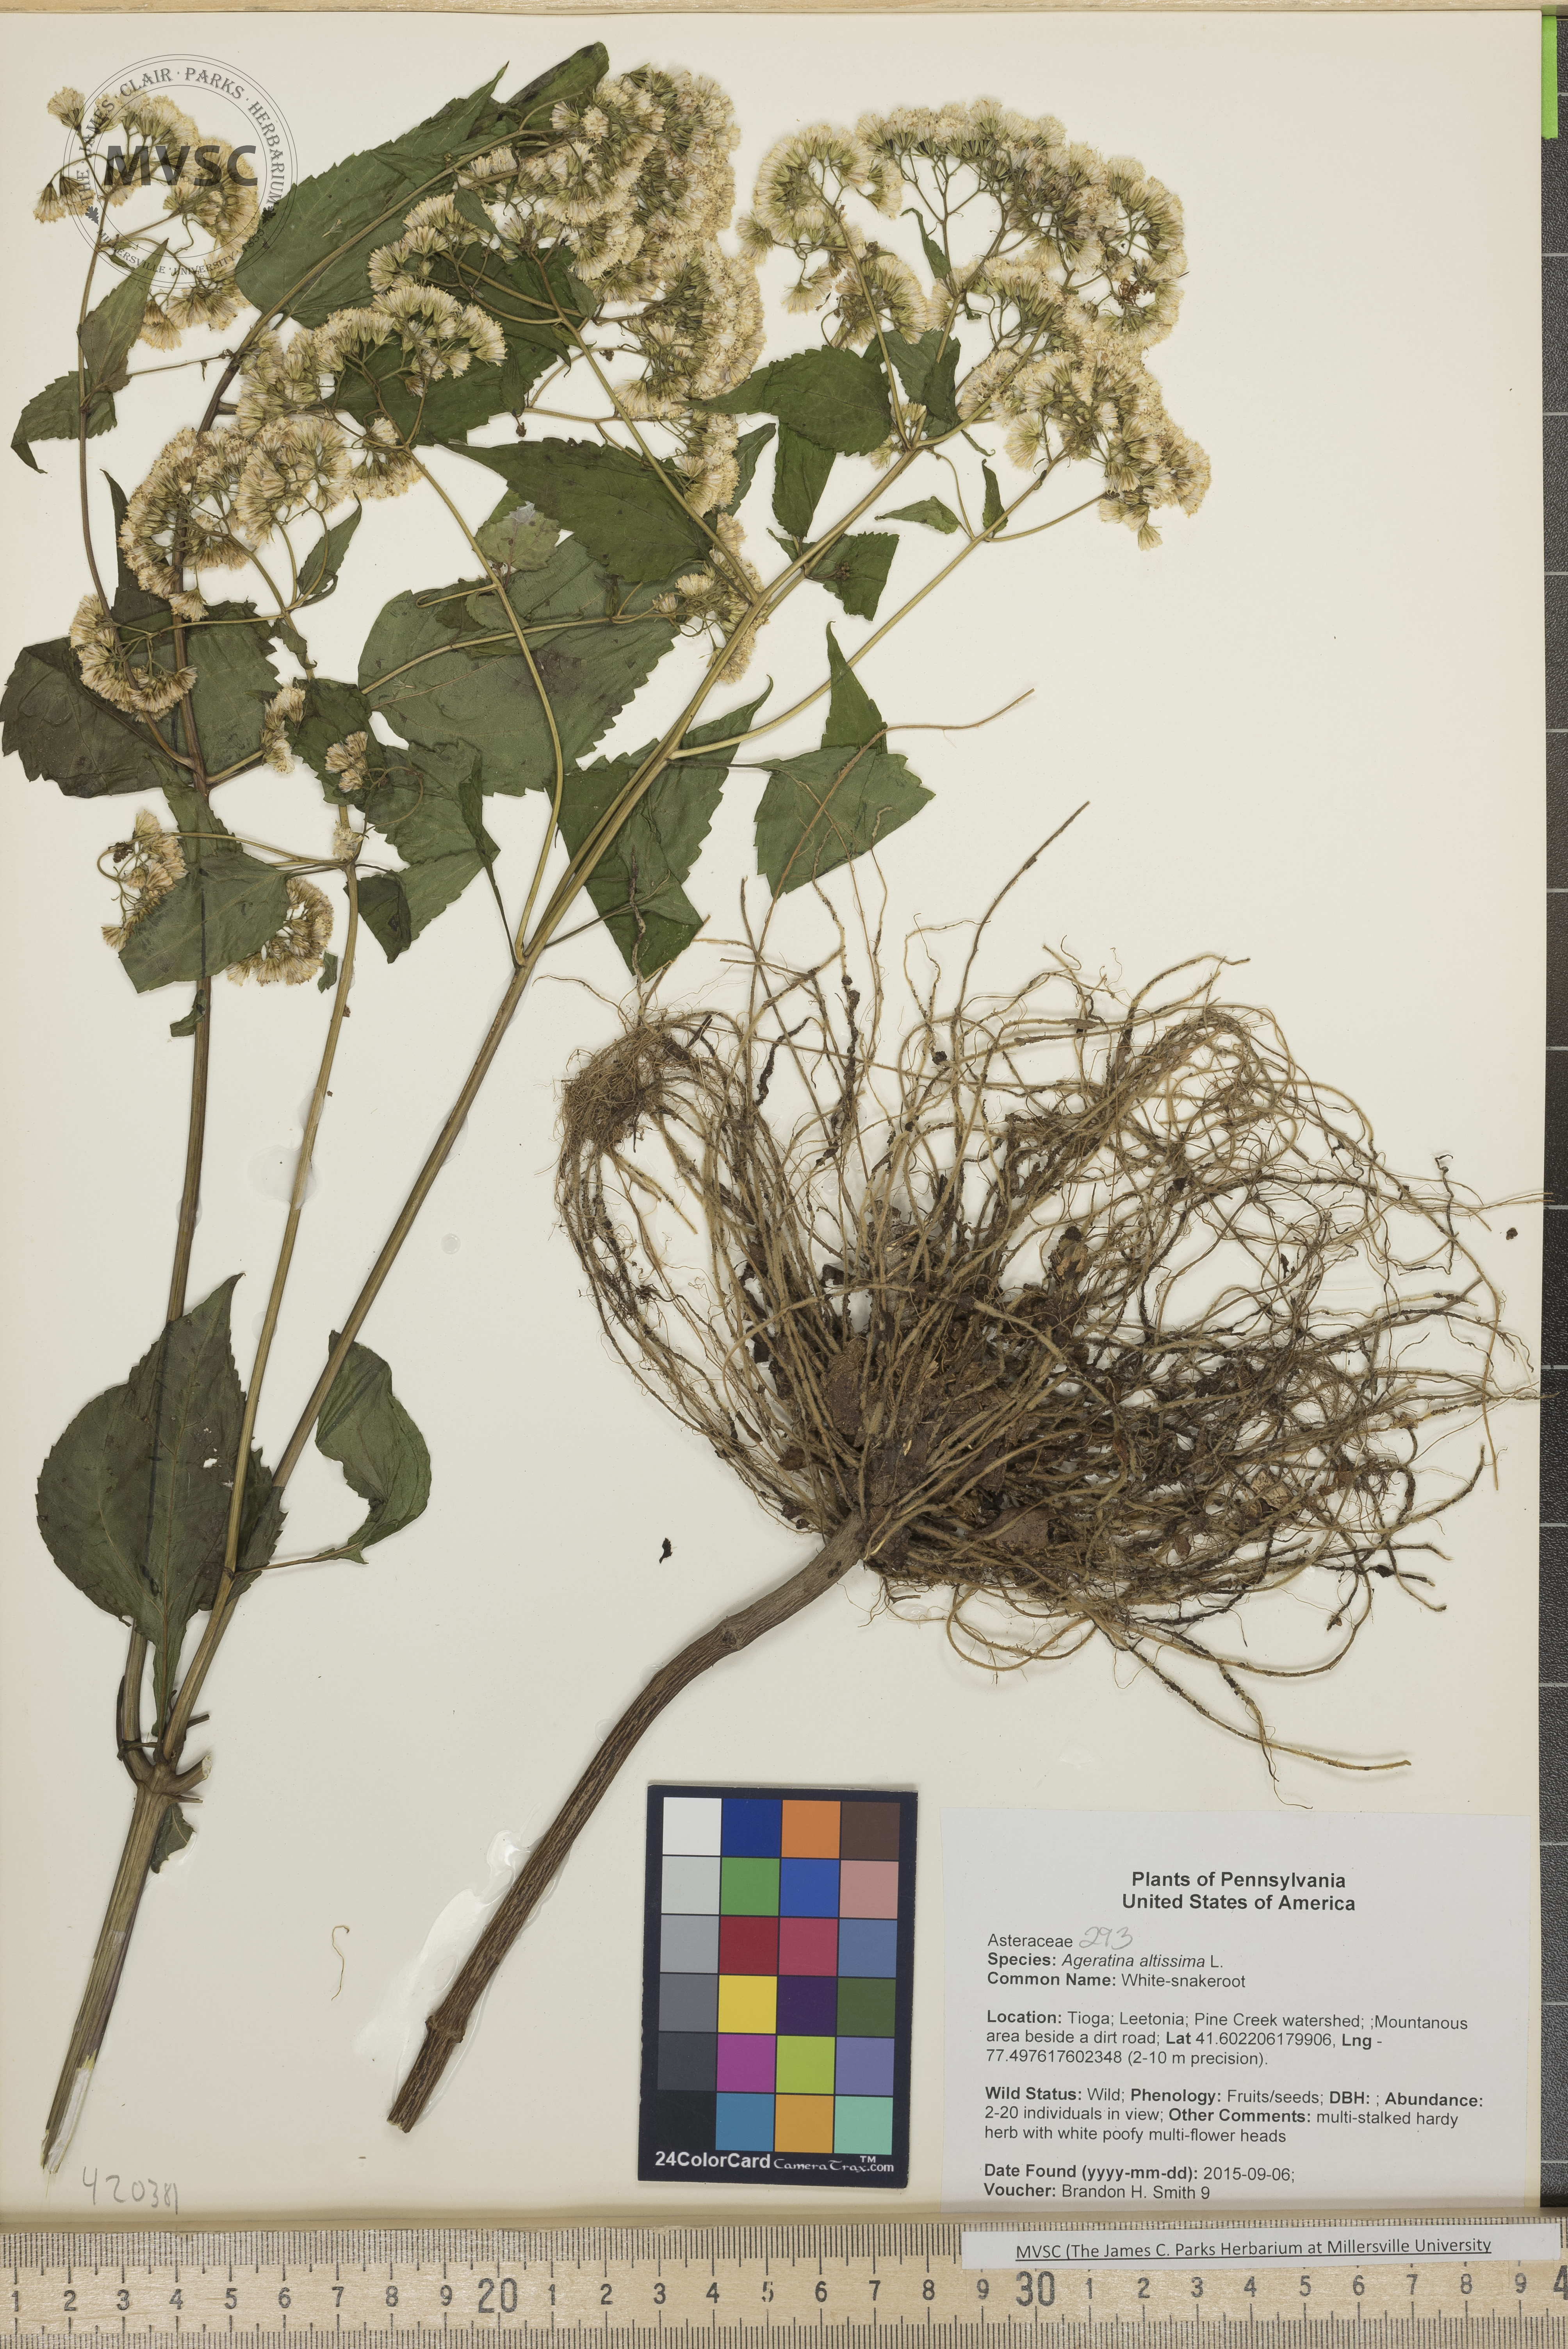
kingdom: Plantae
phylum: Tracheophyta
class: Magnoliopsida
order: Asterales
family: Asteraceae
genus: Ageratina
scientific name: Ageratina altissima
